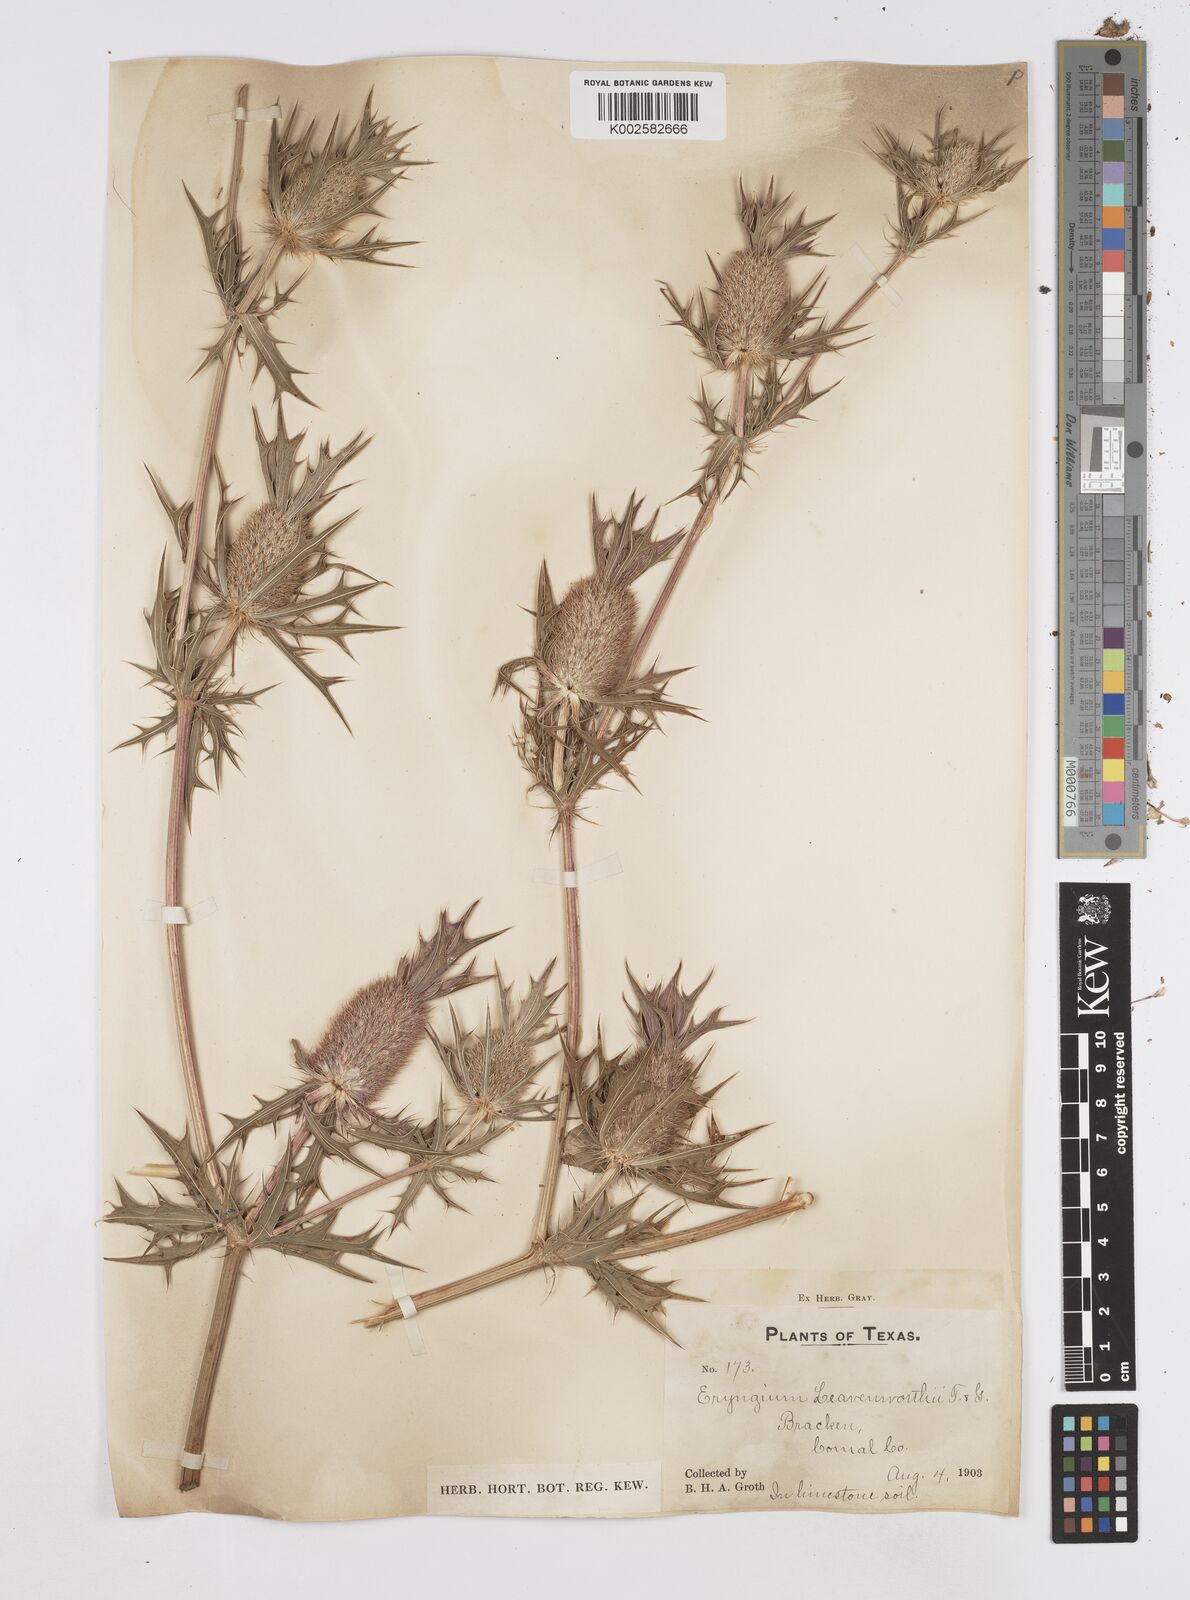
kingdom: Plantae
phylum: Tracheophyta
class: Magnoliopsida
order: Apiales
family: Apiaceae
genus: Eryngium
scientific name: Eryngium leavenworthii
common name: Leavenworth's eryngo
